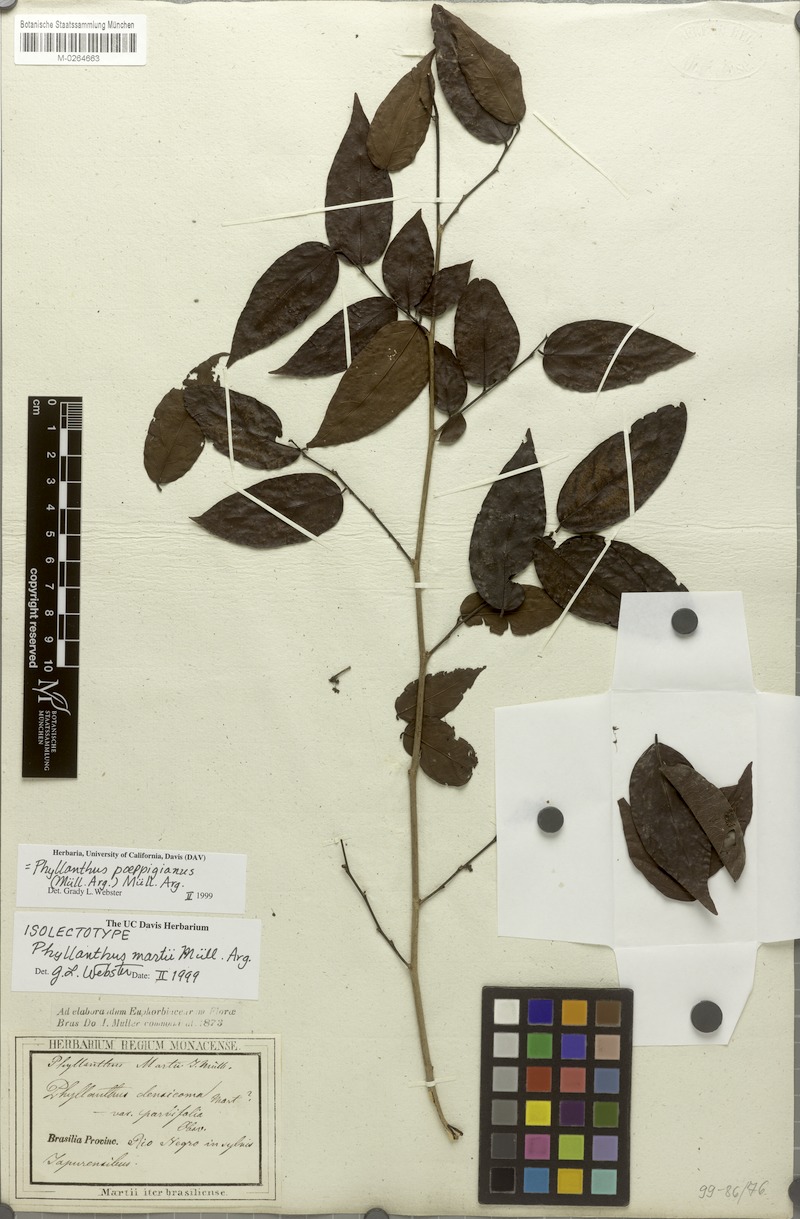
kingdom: Plantae
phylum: Tracheophyta
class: Magnoliopsida
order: Malpighiales
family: Phyllanthaceae
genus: Phyllanthus
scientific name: Phyllanthus poeppigianus
